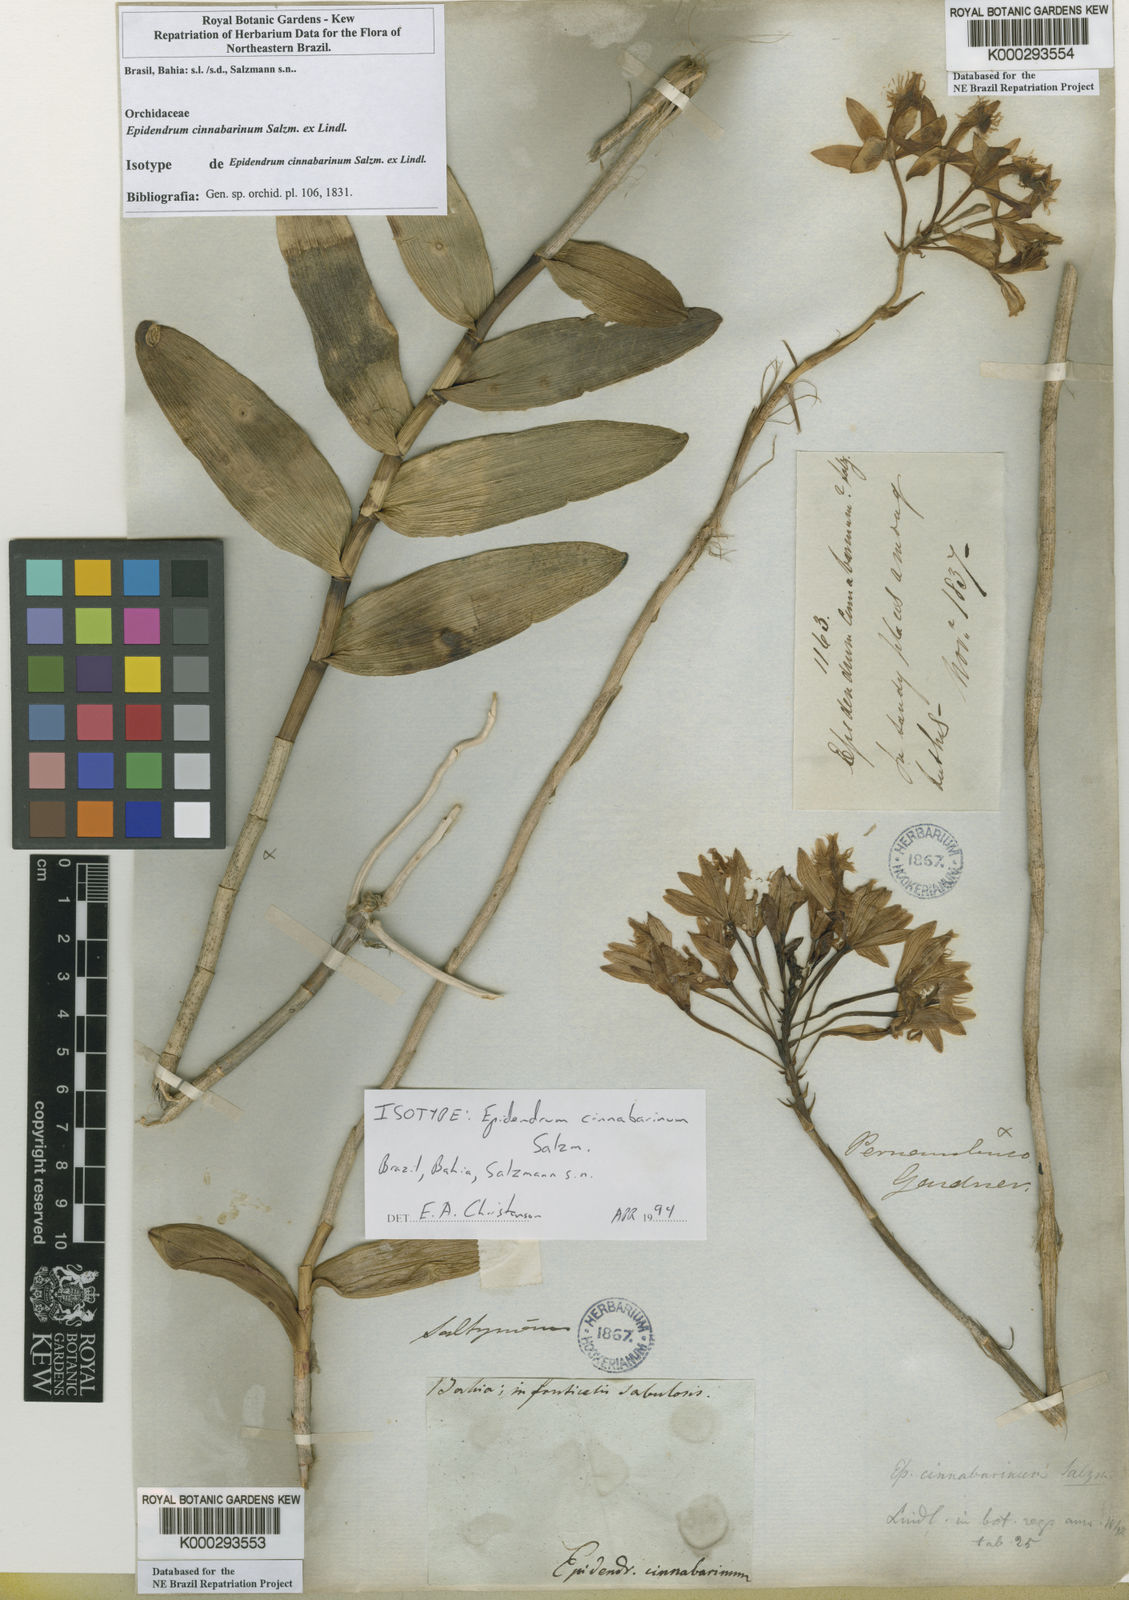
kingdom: Plantae
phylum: Tracheophyta
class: Liliopsida
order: Asparagales
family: Orchidaceae
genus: Epidendrum
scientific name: Epidendrum cinnabarinum
